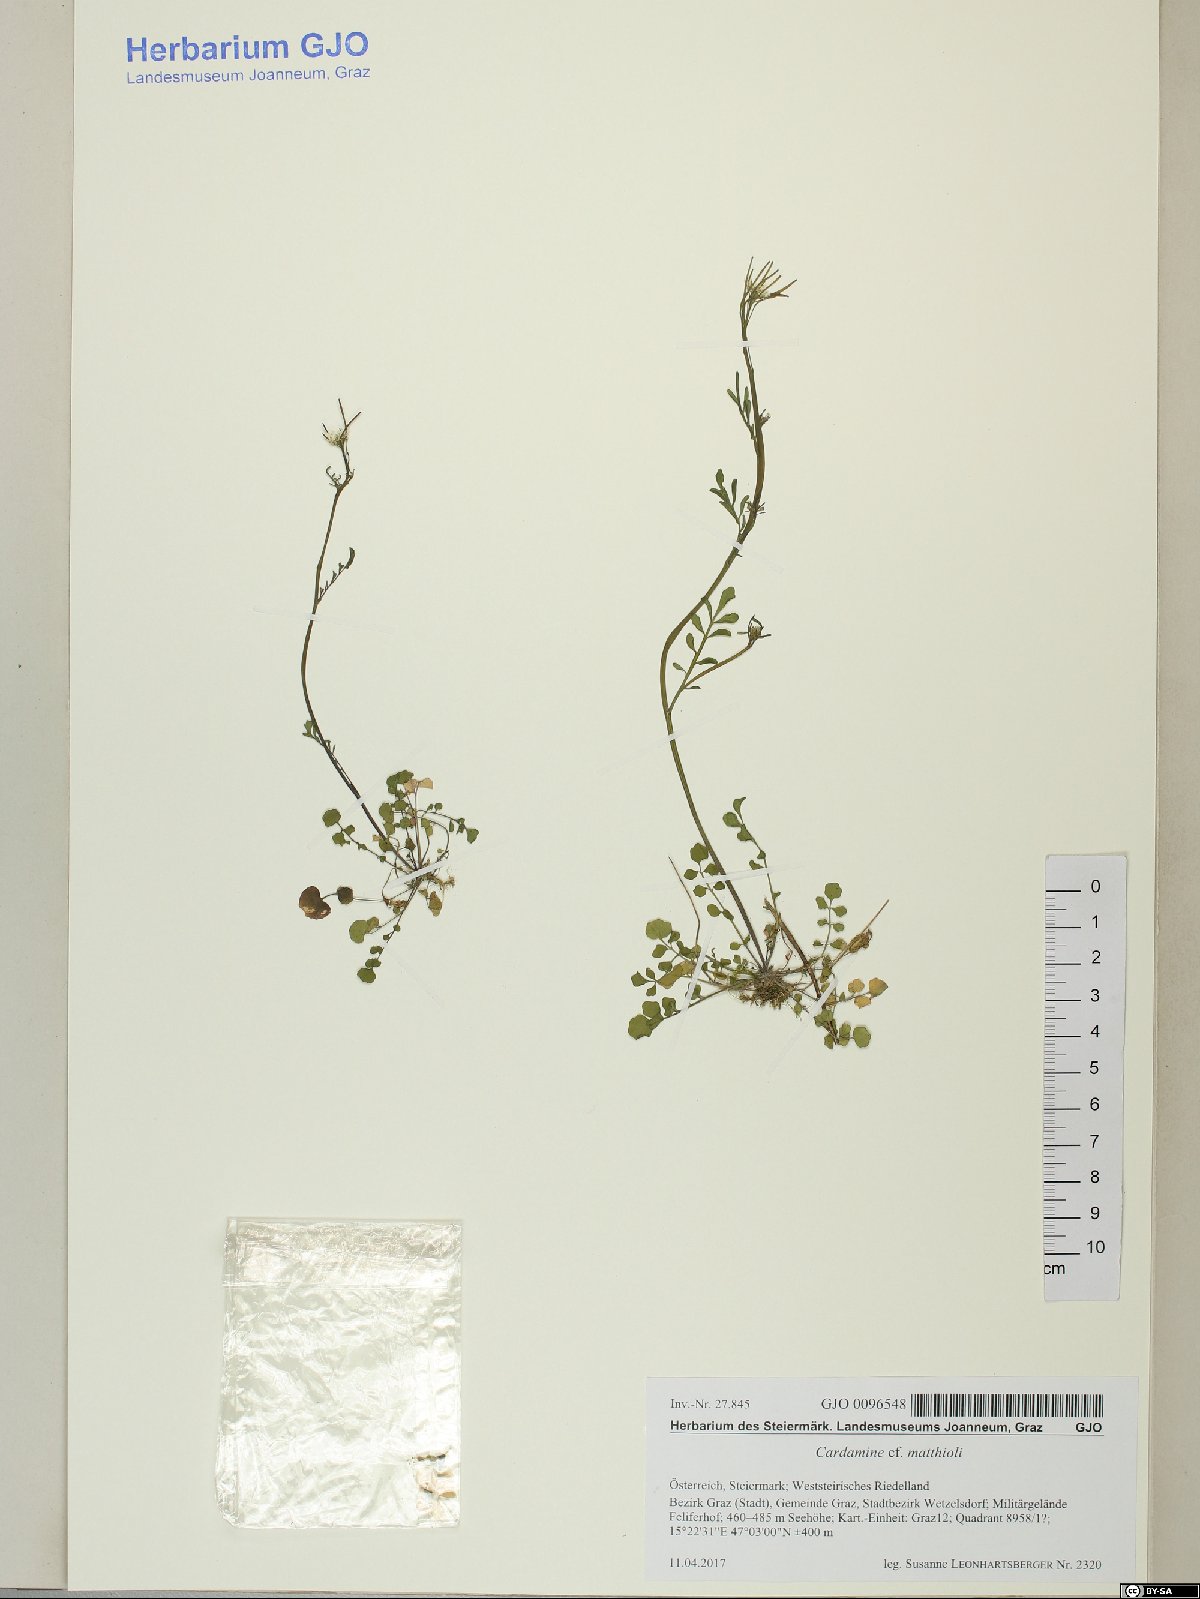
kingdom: Plantae
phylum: Tracheophyta
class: Magnoliopsida
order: Brassicales
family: Brassicaceae
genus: Cardamine
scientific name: Cardamine matthioli
